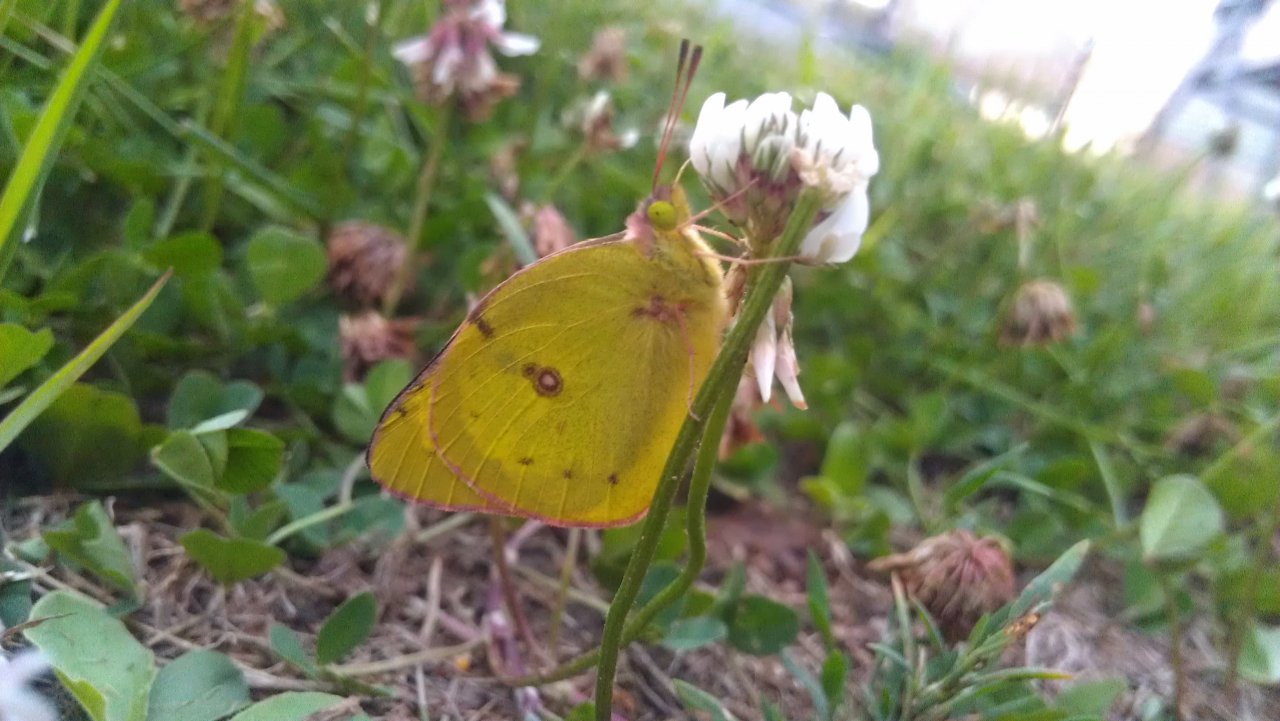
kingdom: Animalia
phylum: Arthropoda
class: Insecta
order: Lepidoptera
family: Pieridae
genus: Colias
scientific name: Colias philodice
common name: Clouded Sulphur
